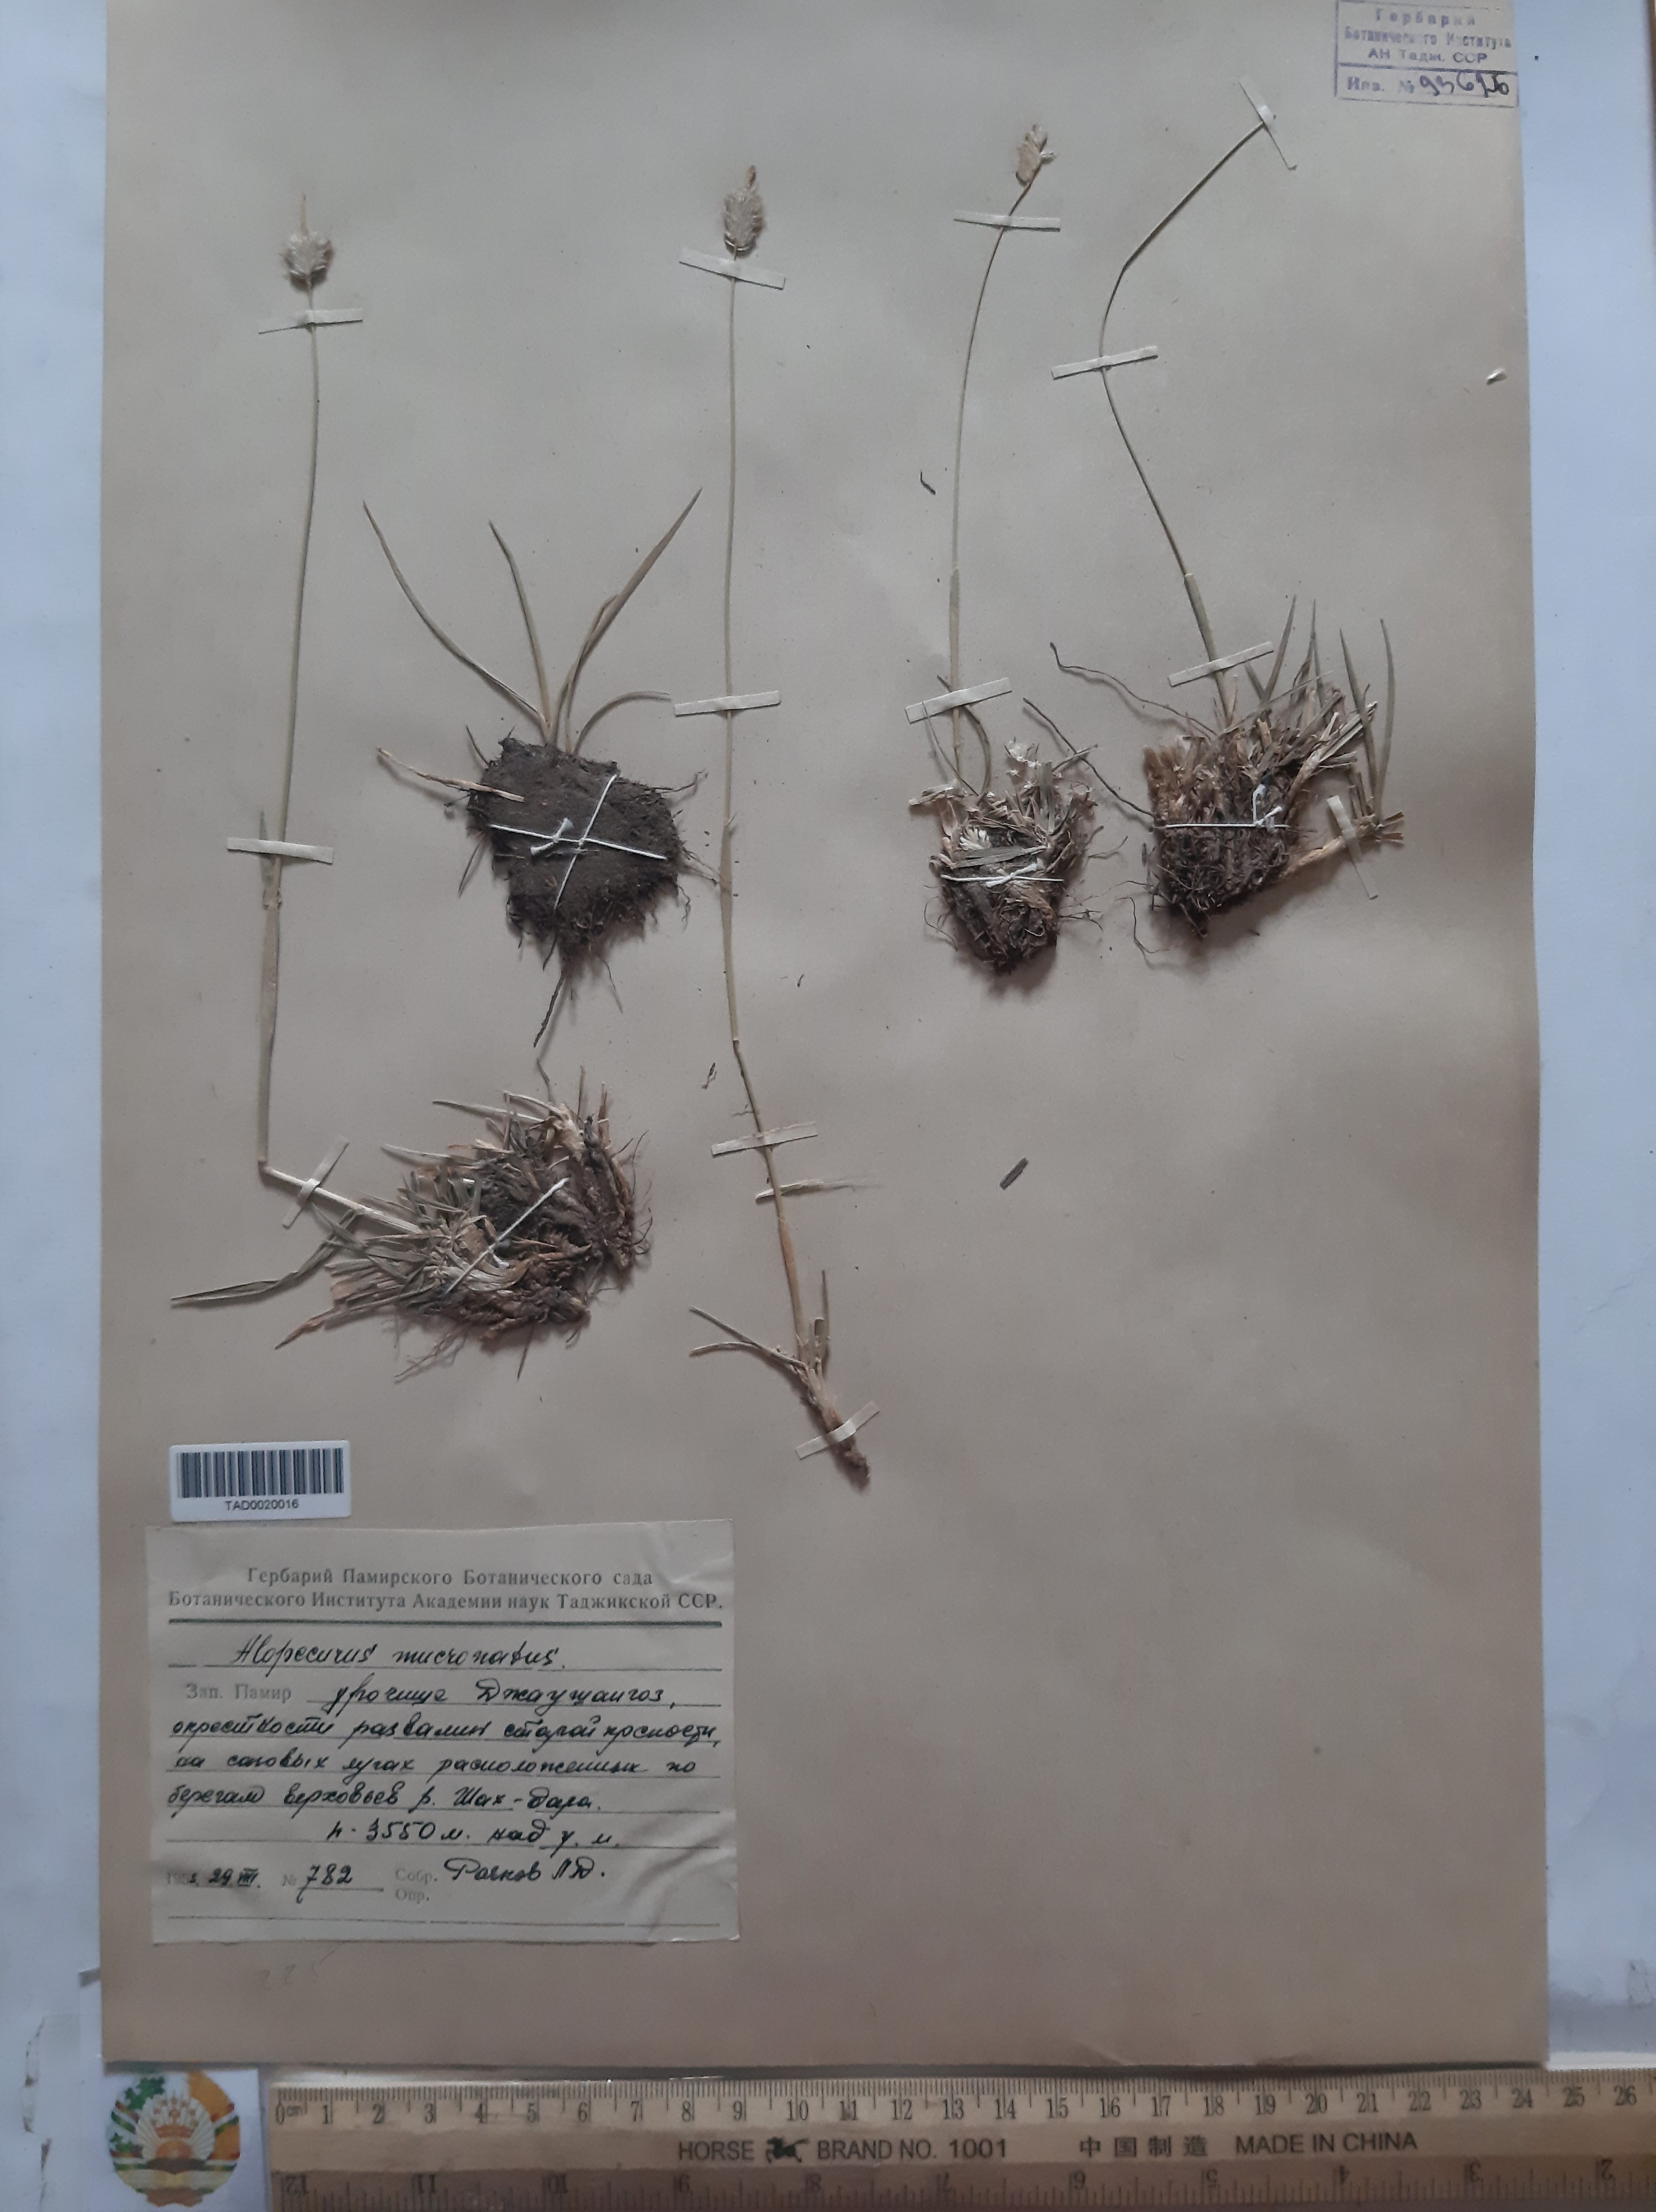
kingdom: Plantae
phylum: Tracheophyta
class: Liliopsida
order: Poales
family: Poaceae
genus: Alopecurus
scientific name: Alopecurus mucronatus
